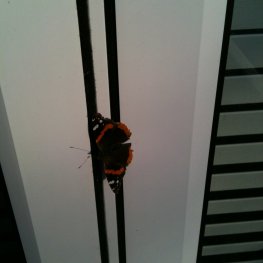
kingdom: Animalia
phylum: Arthropoda
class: Insecta
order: Lepidoptera
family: Nymphalidae
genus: Vanessa
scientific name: Vanessa atalanta
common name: Red Admiral
